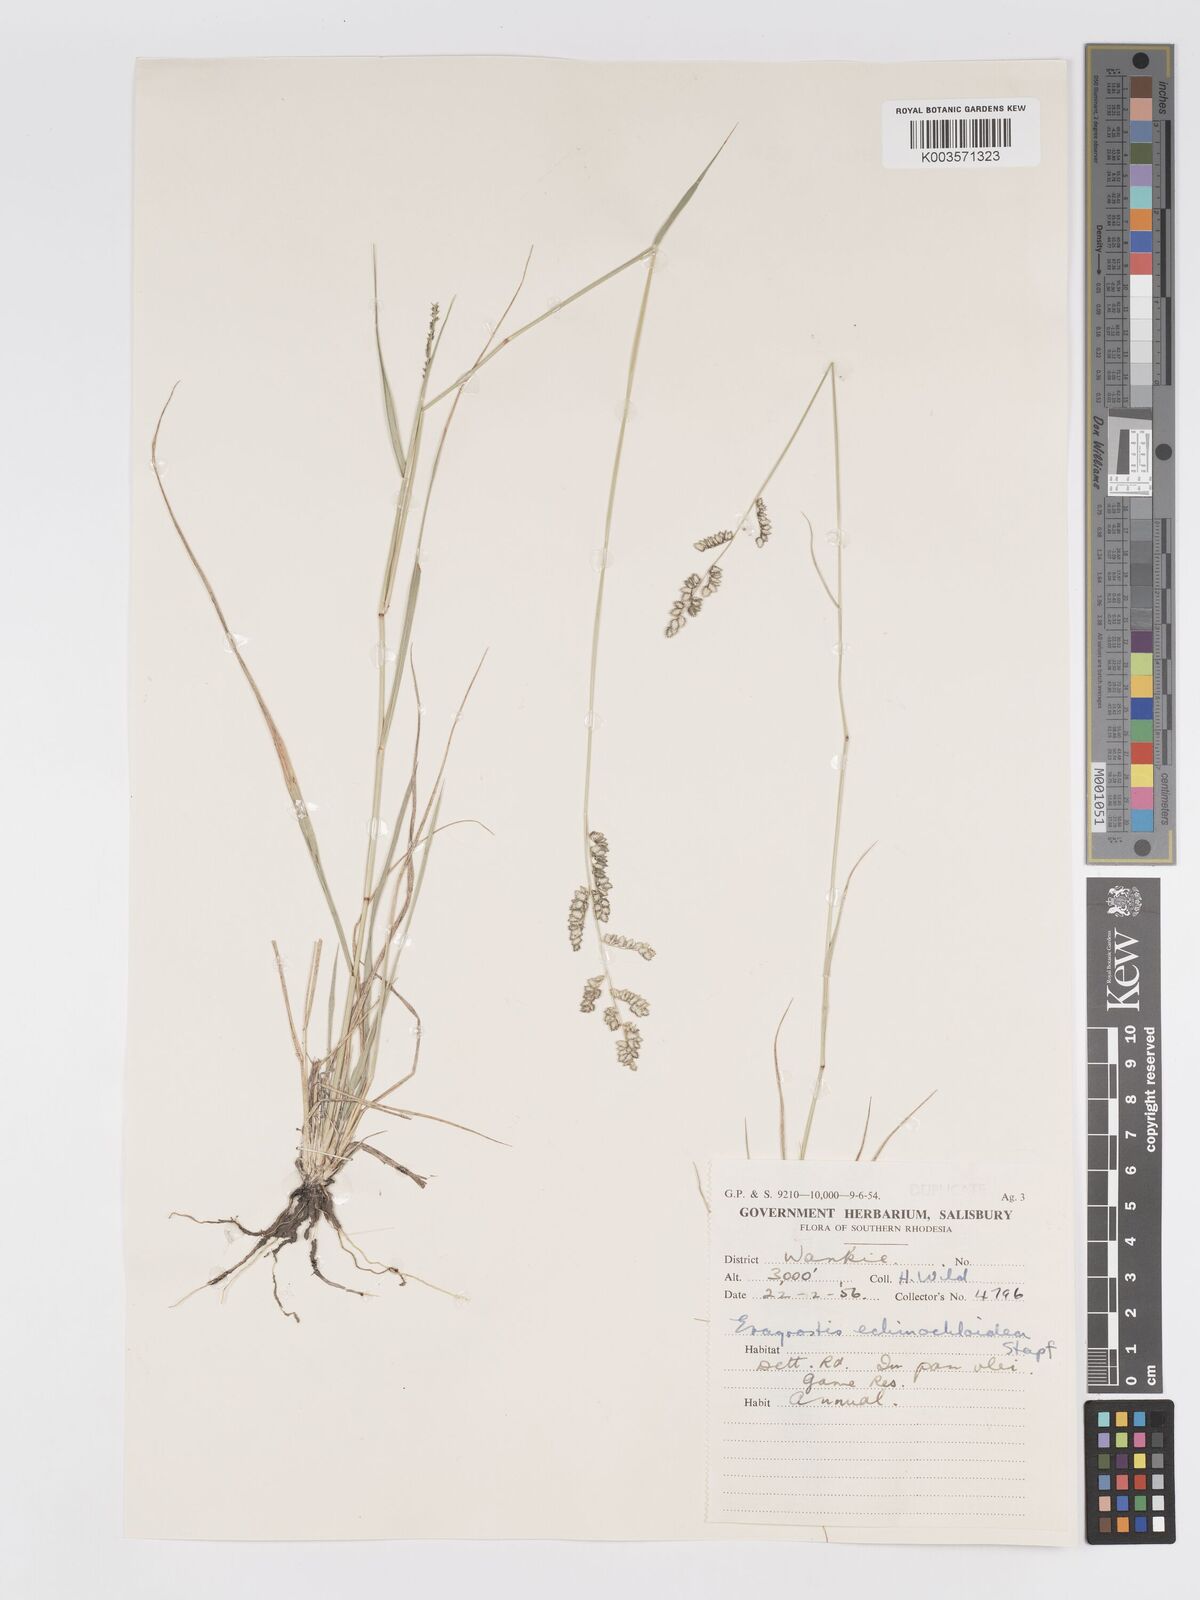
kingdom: Plantae
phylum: Tracheophyta
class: Liliopsida
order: Poales
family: Poaceae
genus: Eragrostis
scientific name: Eragrostis echinochloidea
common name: African lovegrass
